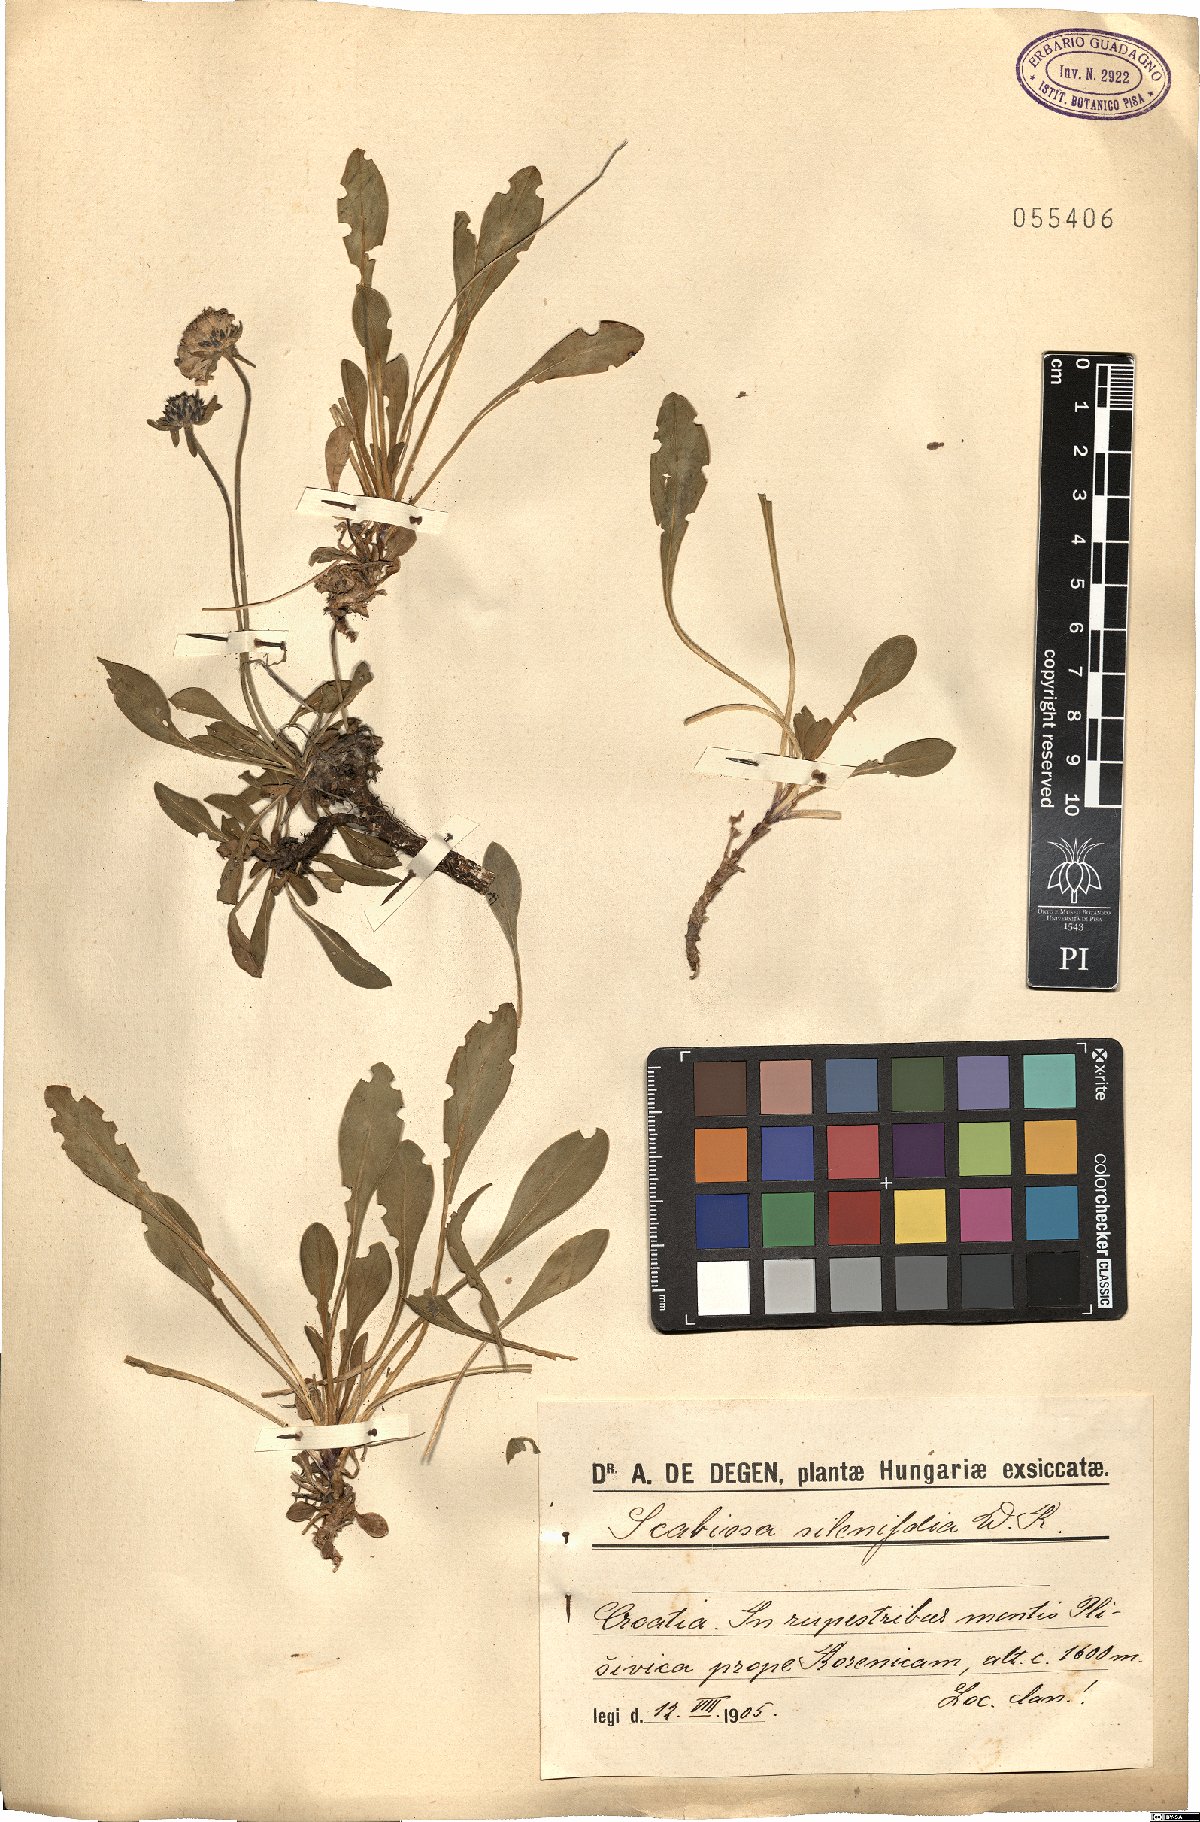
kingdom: Plantae
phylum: Tracheophyta
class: Magnoliopsida
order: Dipsacales
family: Caprifoliaceae
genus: Scabiosa
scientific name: Scabiosa silenifolia
